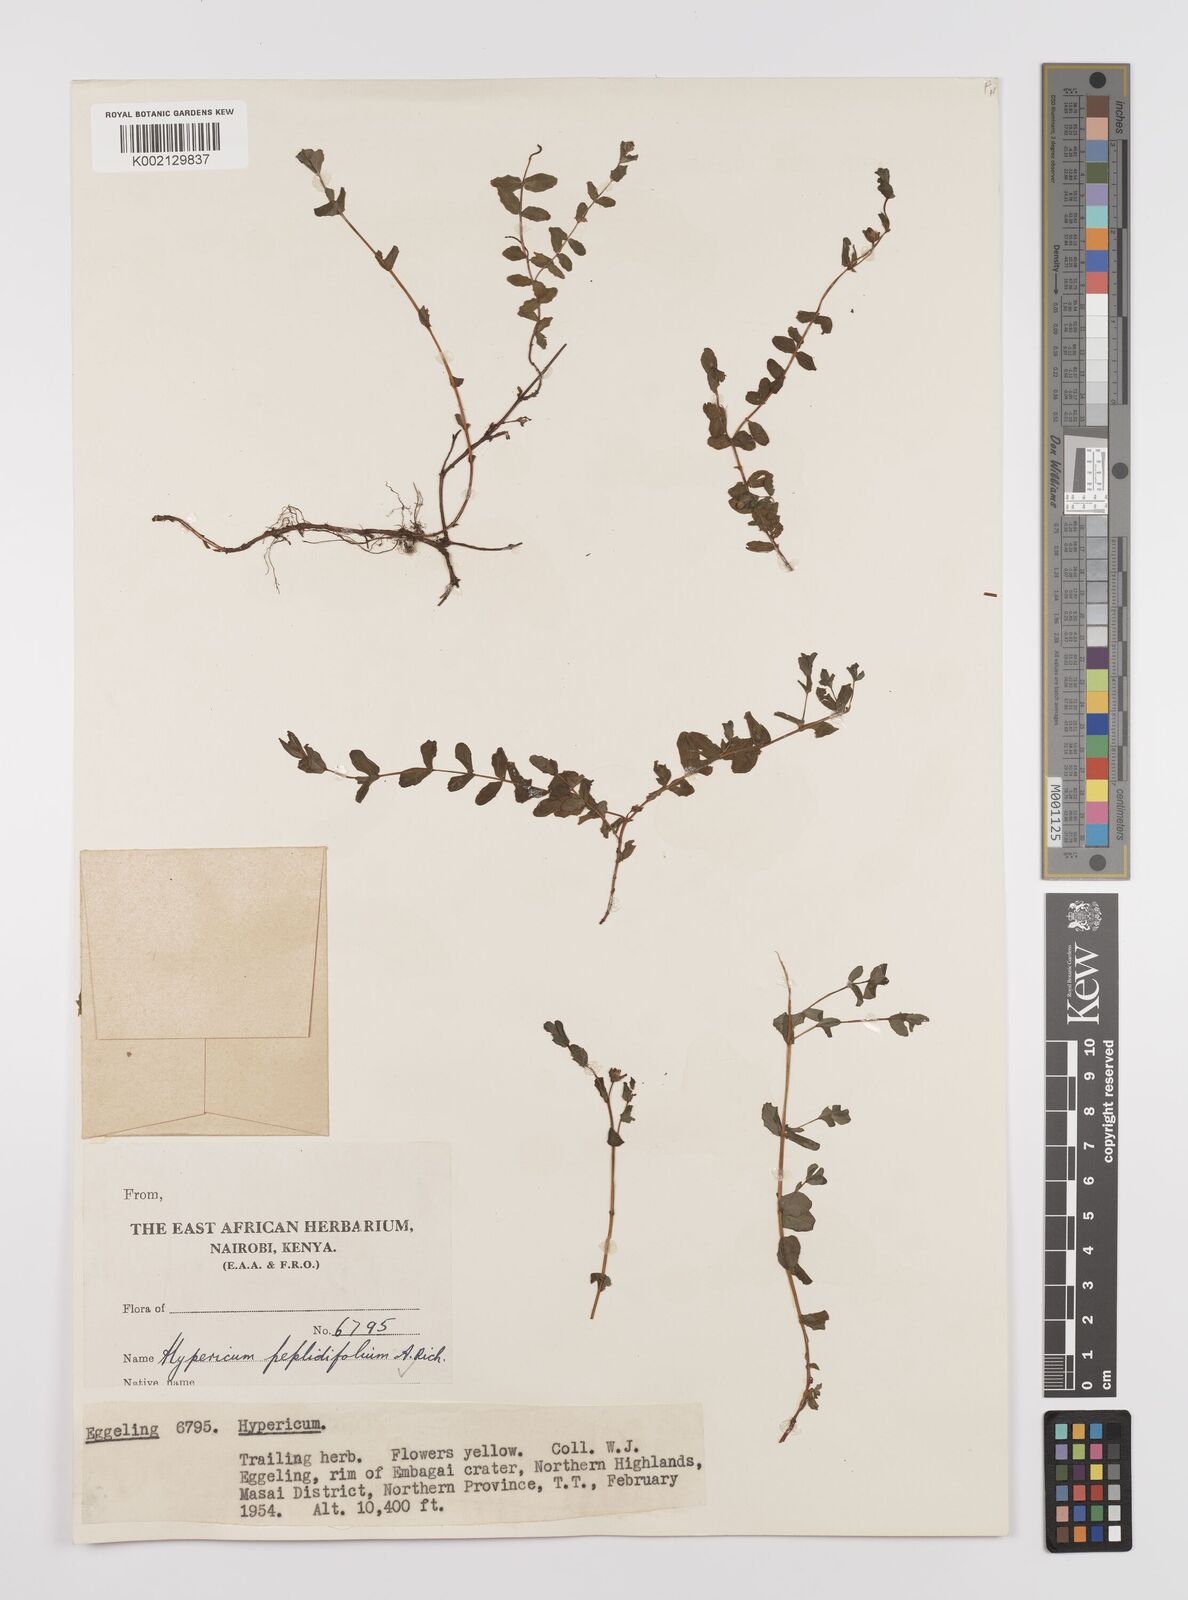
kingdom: Plantae
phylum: Tracheophyta
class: Magnoliopsida
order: Malpighiales
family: Hypericaceae
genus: Hypericum
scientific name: Hypericum peplidifolium
